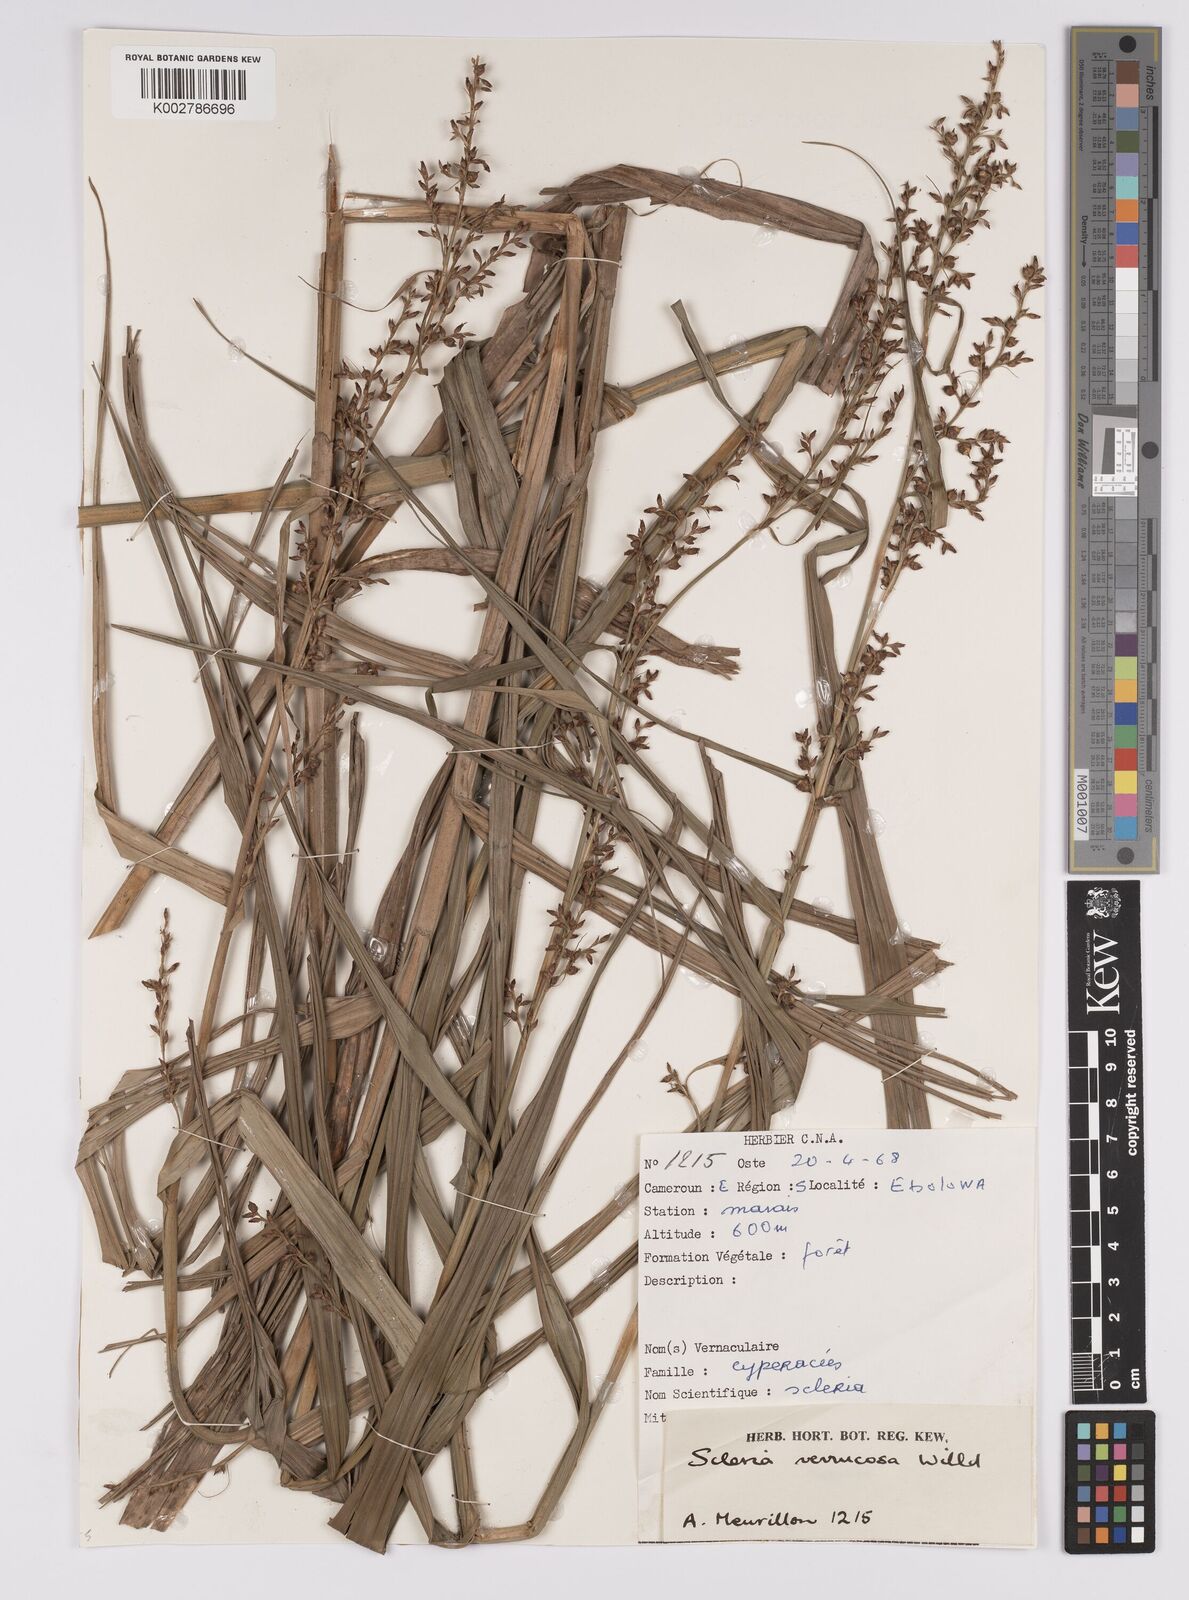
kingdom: Plantae
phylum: Tracheophyta
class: Liliopsida
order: Poales
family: Cyperaceae
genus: Scleria
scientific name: Scleria verrucosa
